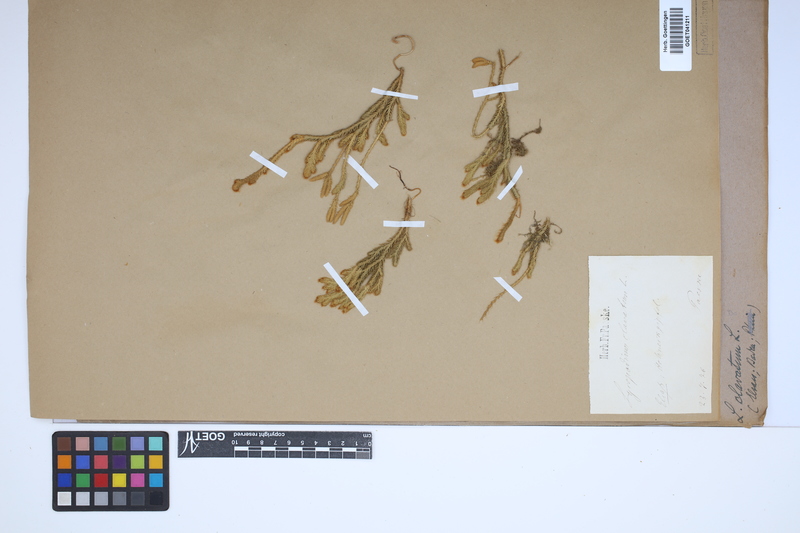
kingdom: Plantae
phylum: Tracheophyta
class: Lycopodiopsida
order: Lycopodiales
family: Lycopodiaceae
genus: Lycopodium
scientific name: Lycopodium clavatum
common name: Stag's-horn clubmoss
